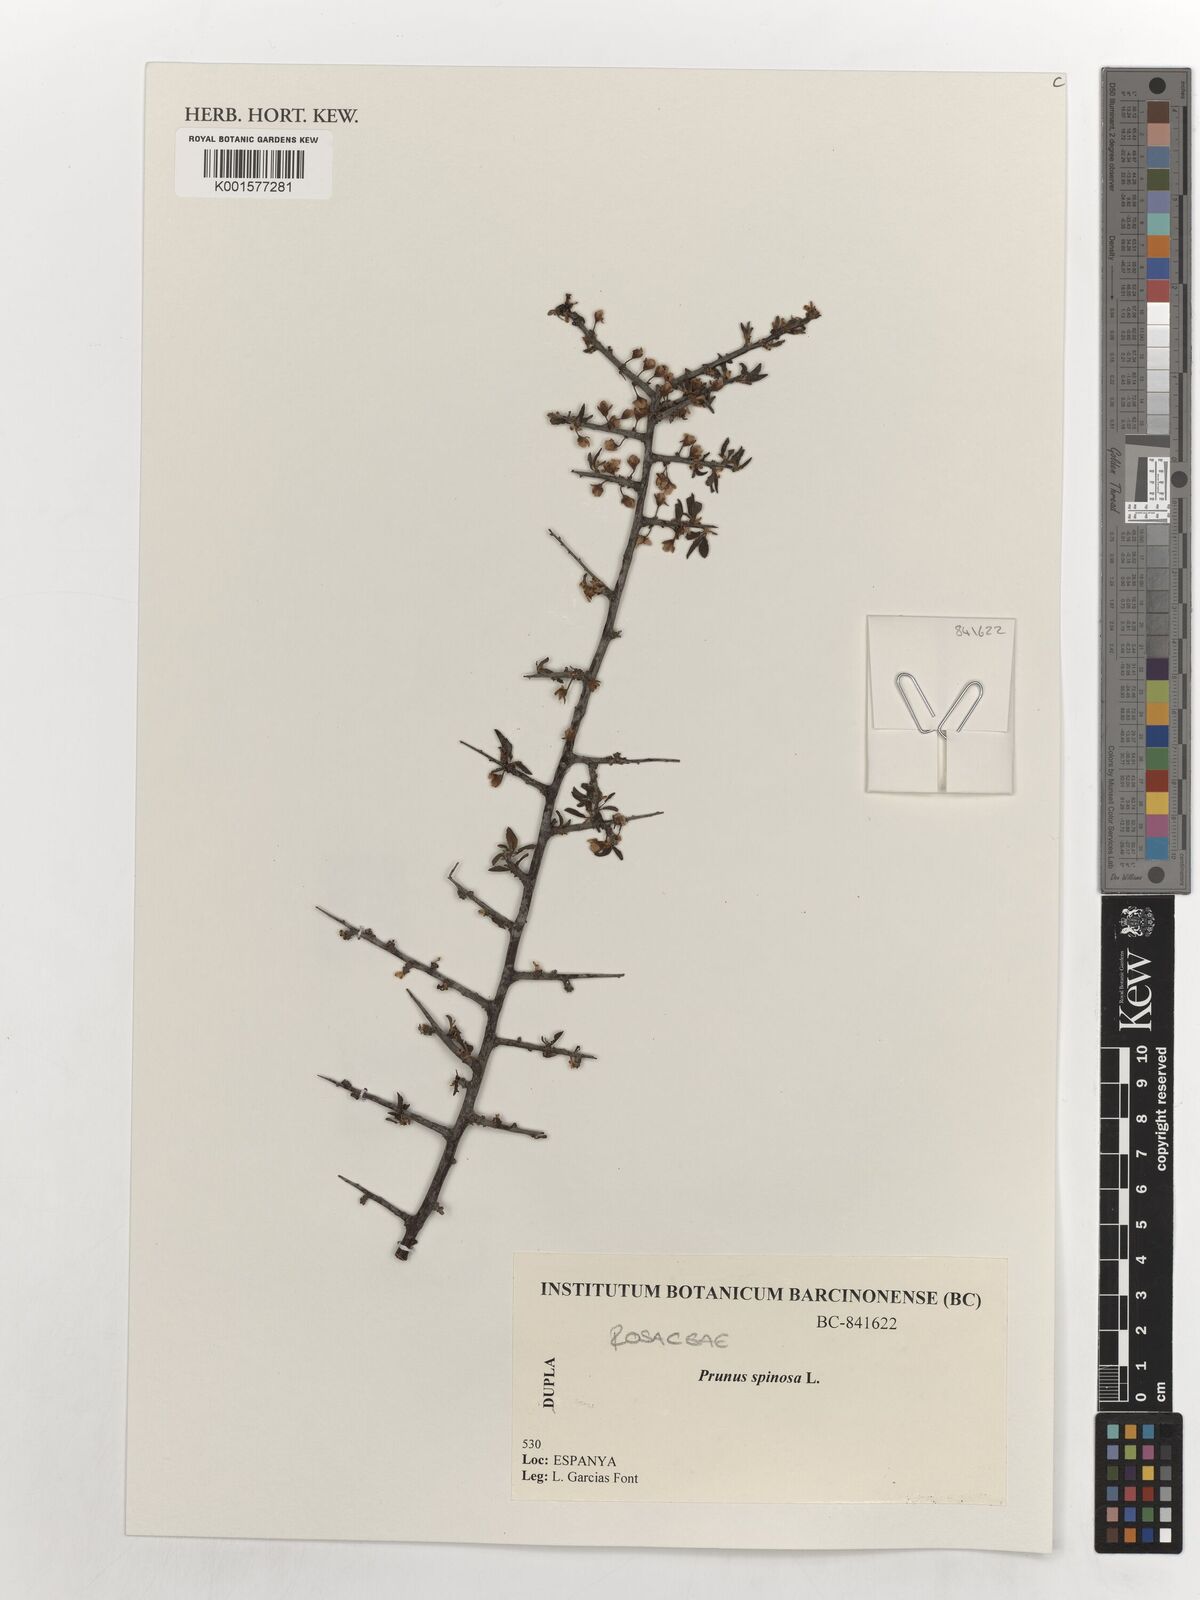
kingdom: Plantae
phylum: Tracheophyta
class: Magnoliopsida
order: Rosales
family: Rosaceae
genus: Prunus
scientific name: Prunus spinosa
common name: Blackthorn
